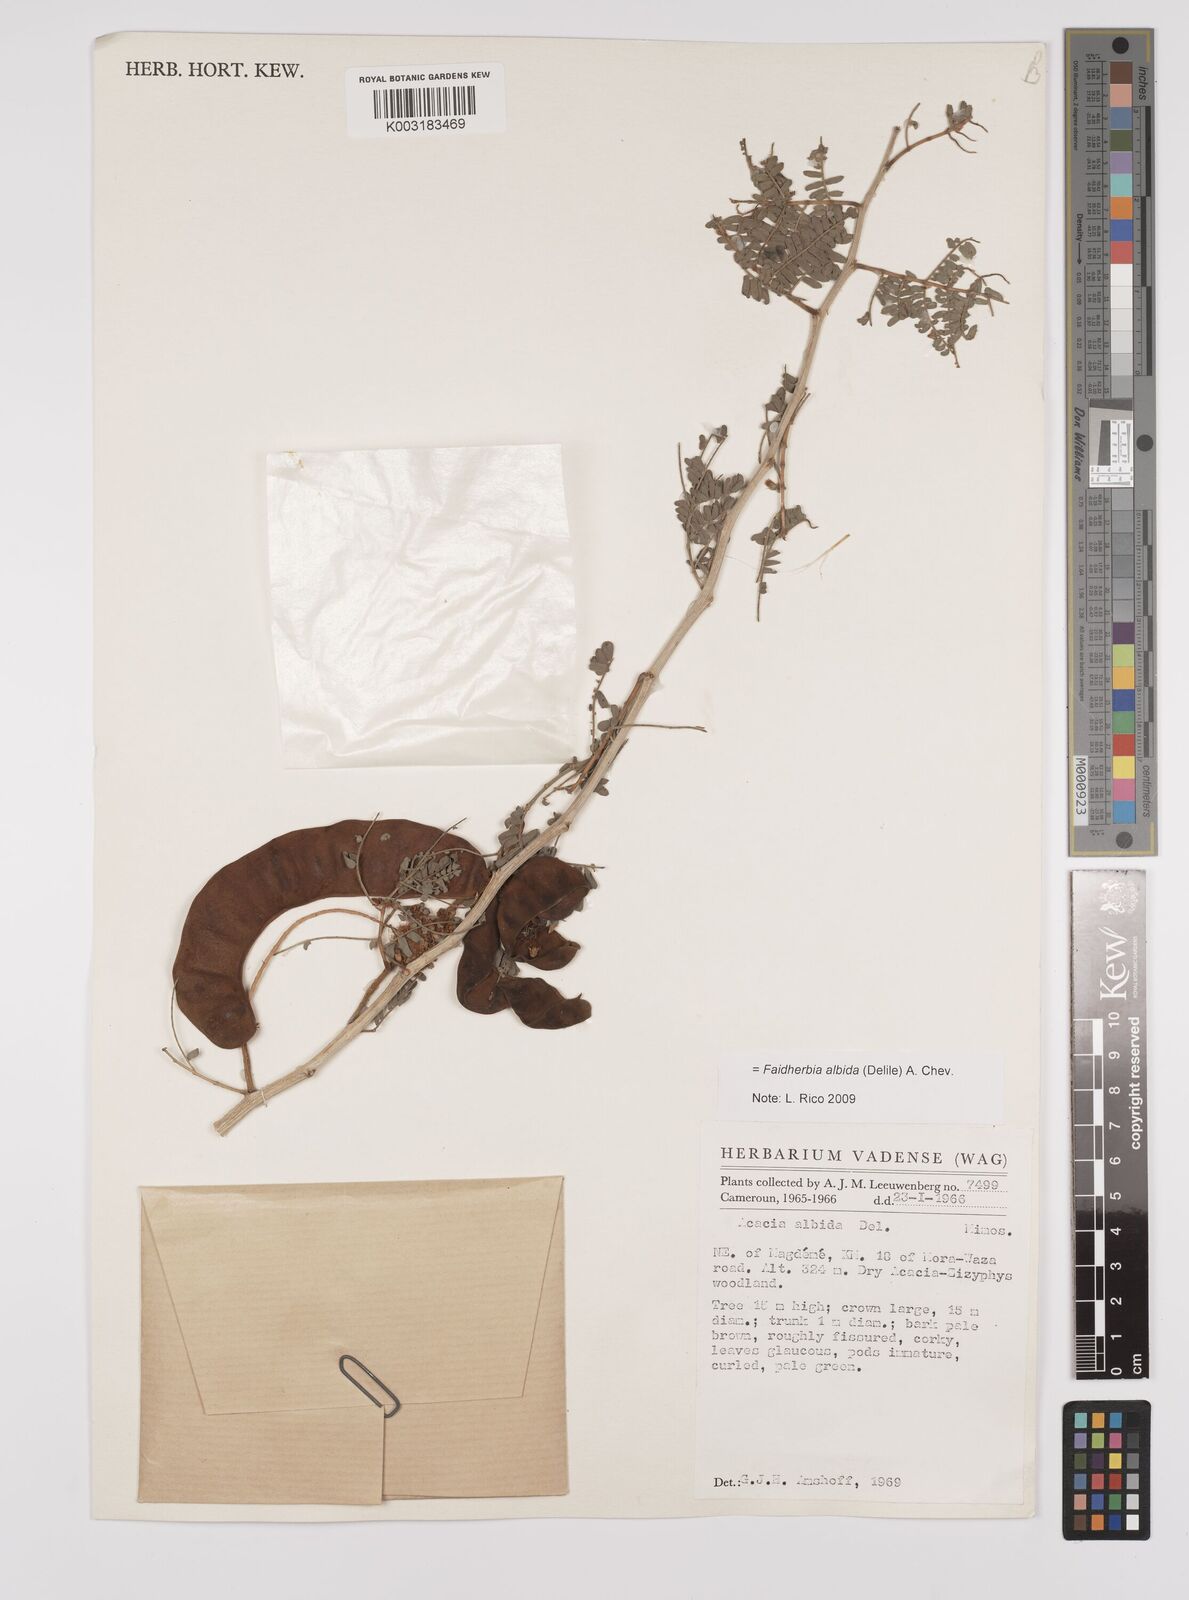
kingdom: Plantae
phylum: Tracheophyta
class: Magnoliopsida
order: Fabales
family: Fabaceae
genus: Faidherbia
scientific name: Faidherbia albida
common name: Anatree
